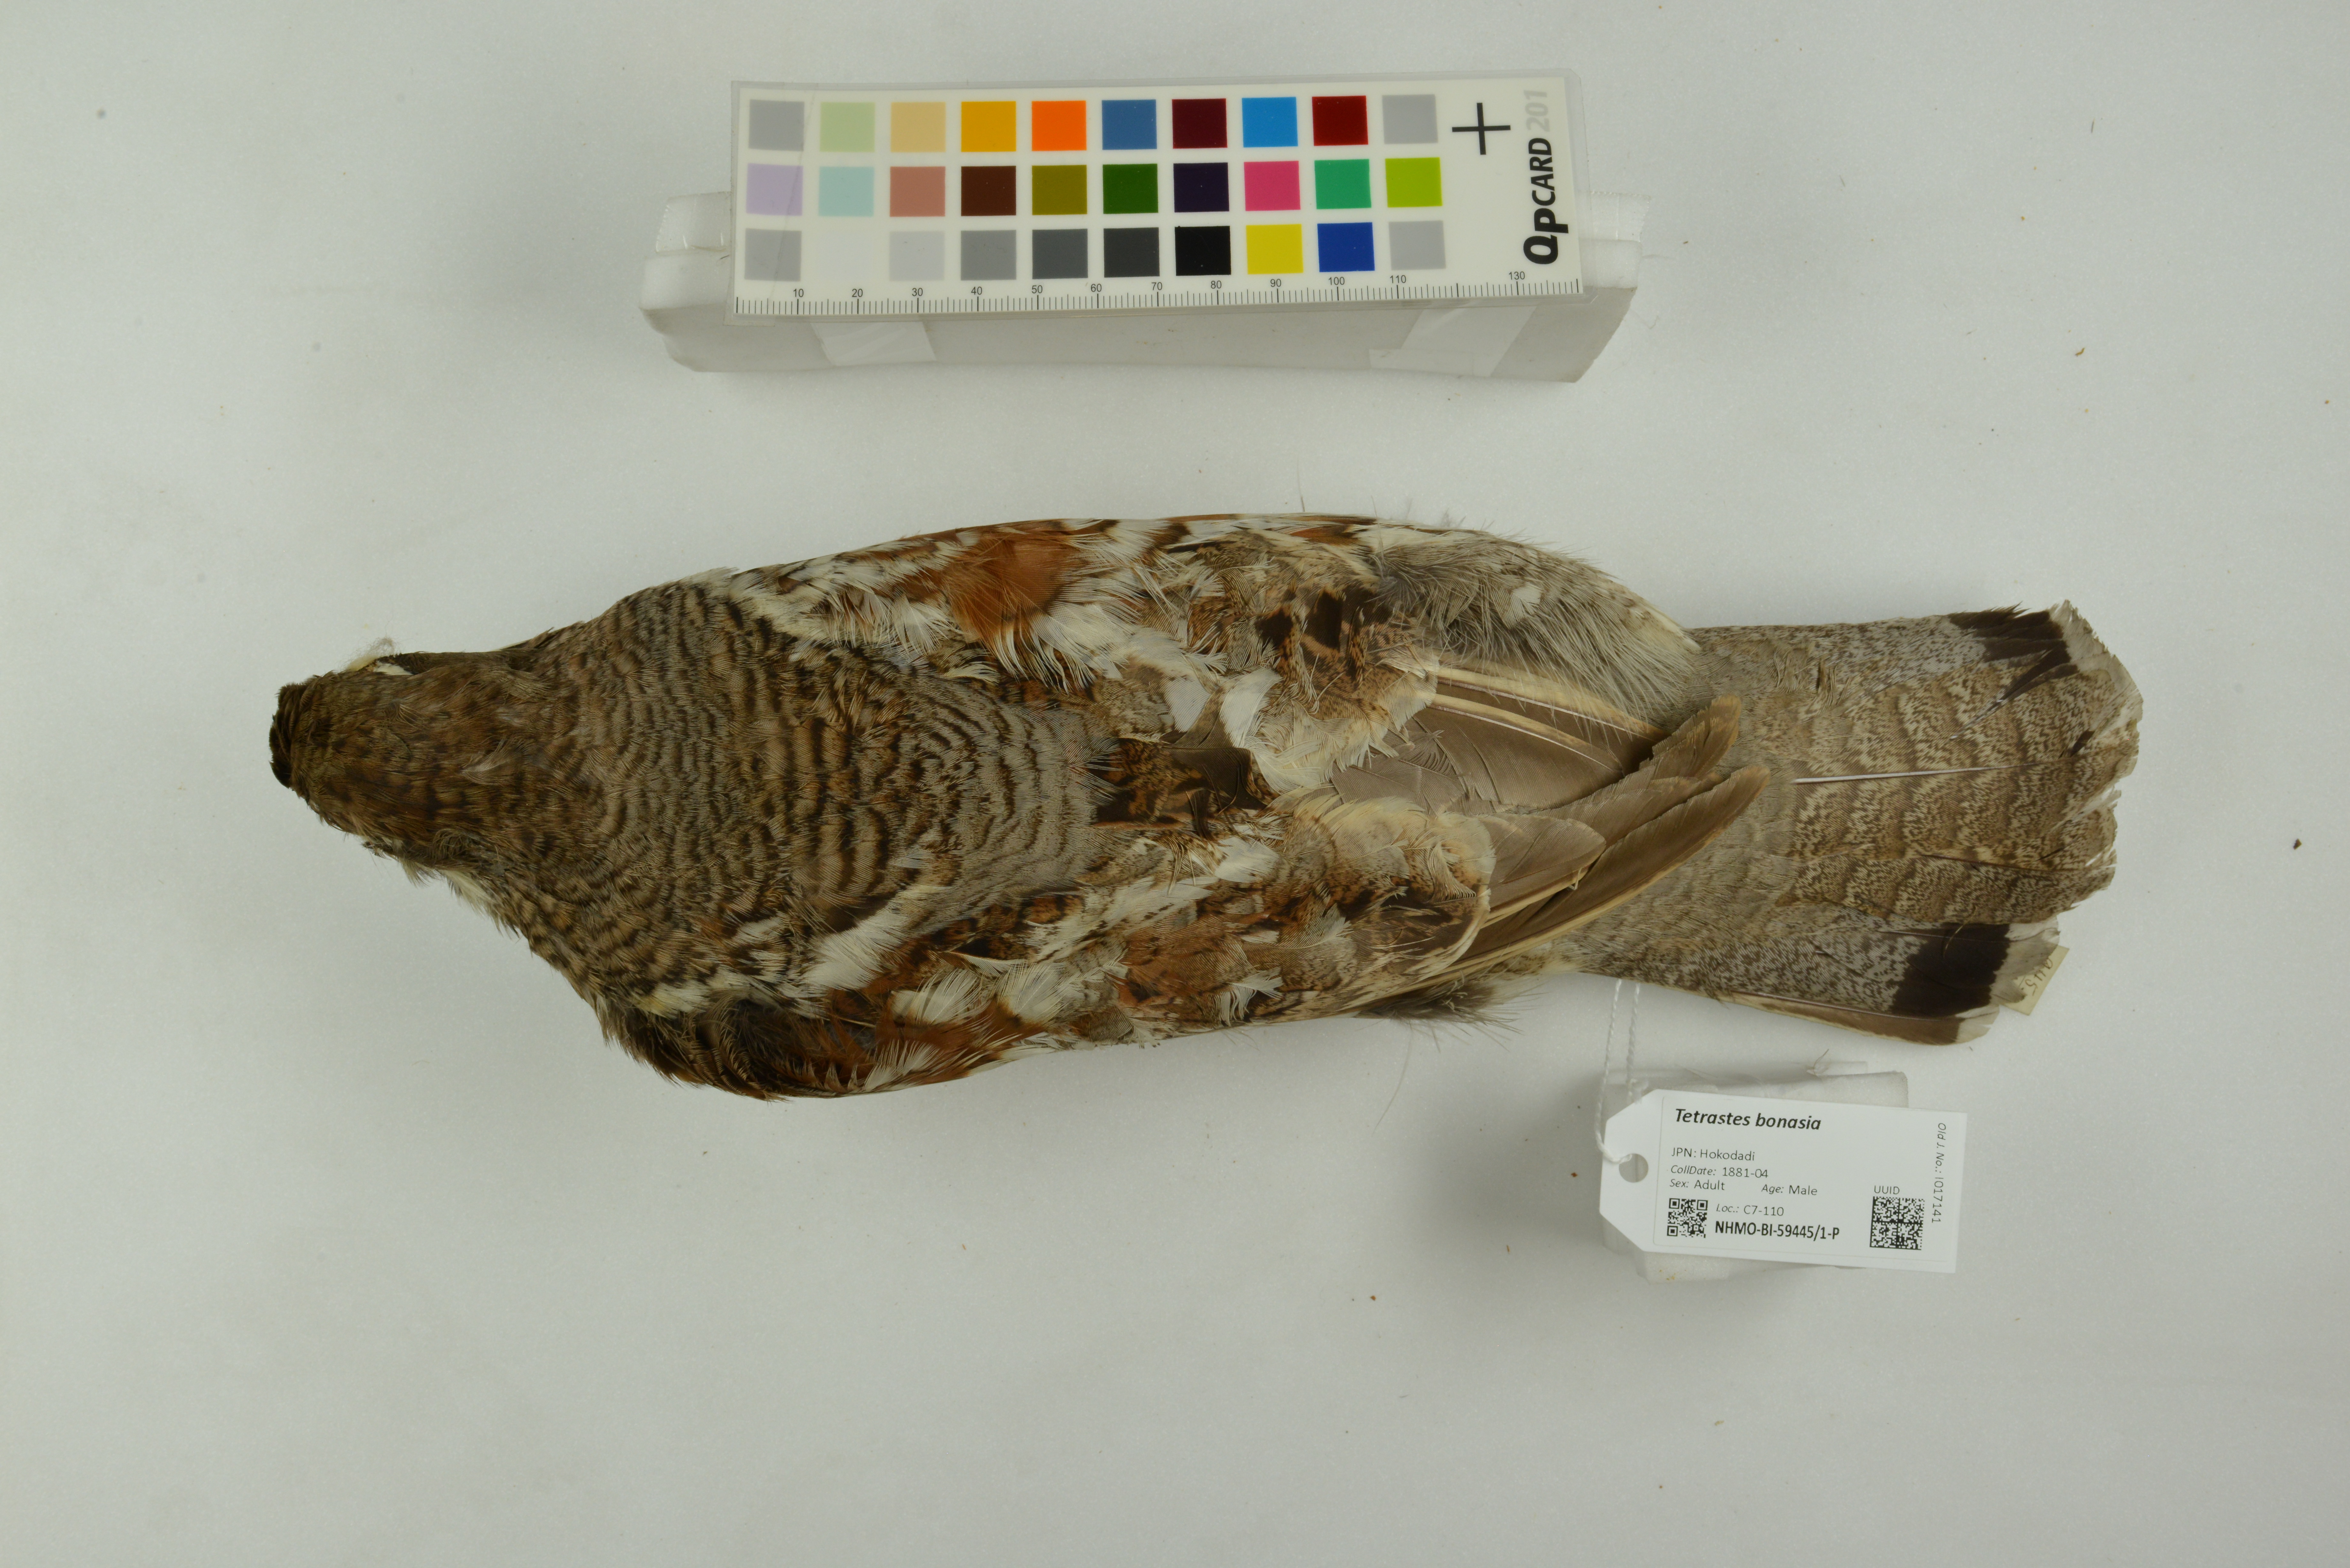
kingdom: Animalia
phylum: Chordata
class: Aves
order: Galliformes
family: Phasianidae
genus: Tetrastes
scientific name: Tetrastes bonasia
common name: Hazel grouse
